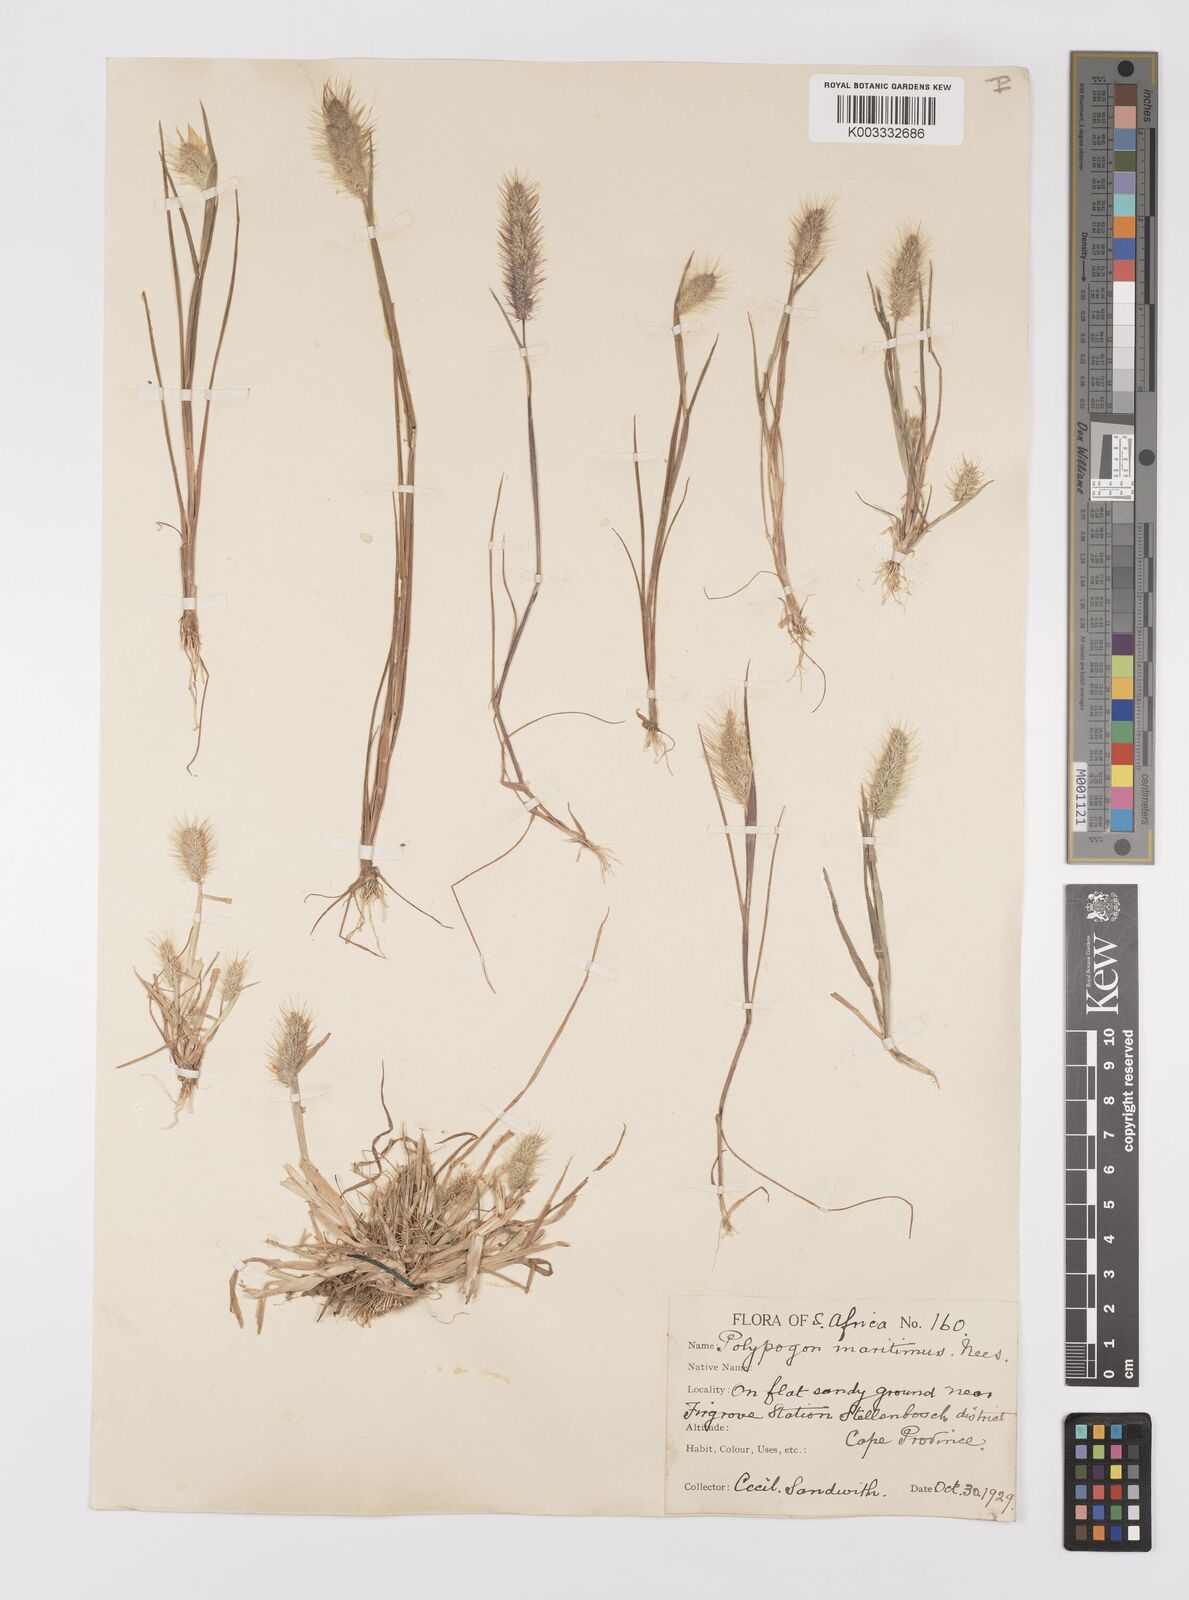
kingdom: Plantae
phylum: Tracheophyta
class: Liliopsida
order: Poales
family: Poaceae
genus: Polypogon
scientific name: Polypogon monspeliensis
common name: Annual rabbitsfoot grass
